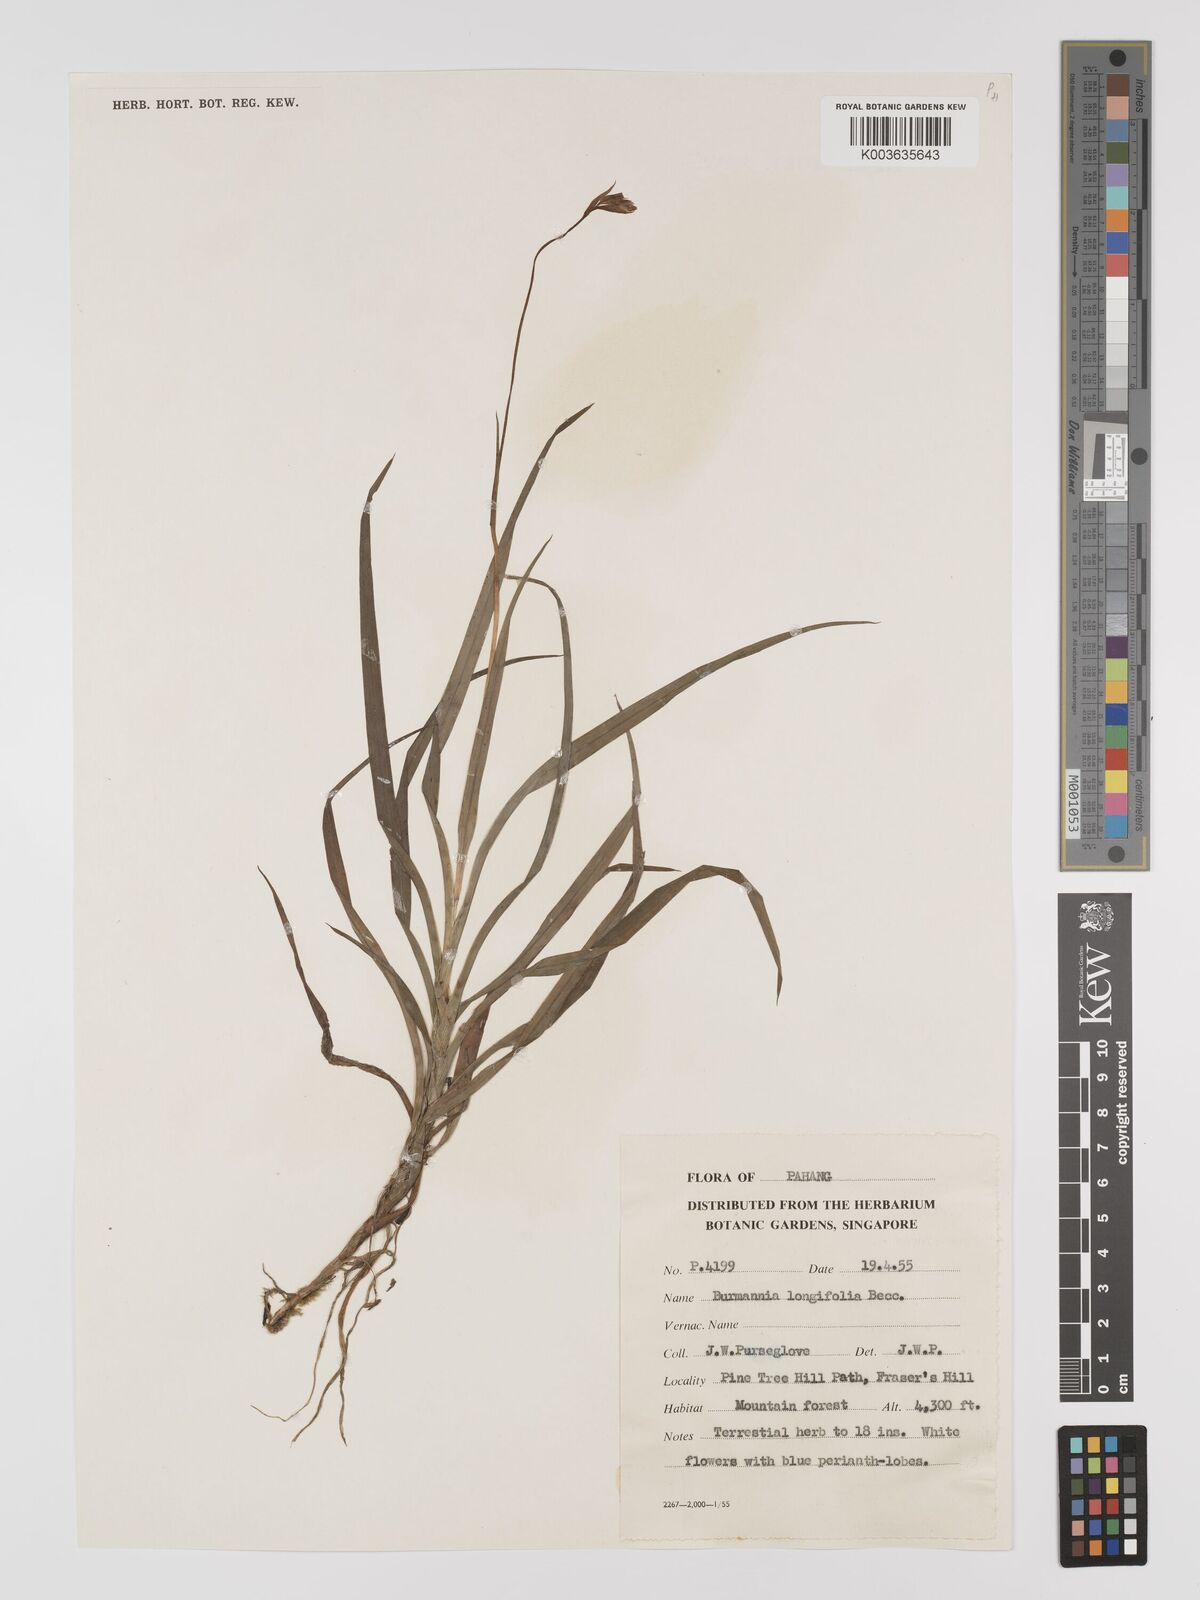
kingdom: Plantae
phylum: Tracheophyta
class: Liliopsida
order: Dioscoreales
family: Burmanniaceae
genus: Burmannia
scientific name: Burmannia longifolia
